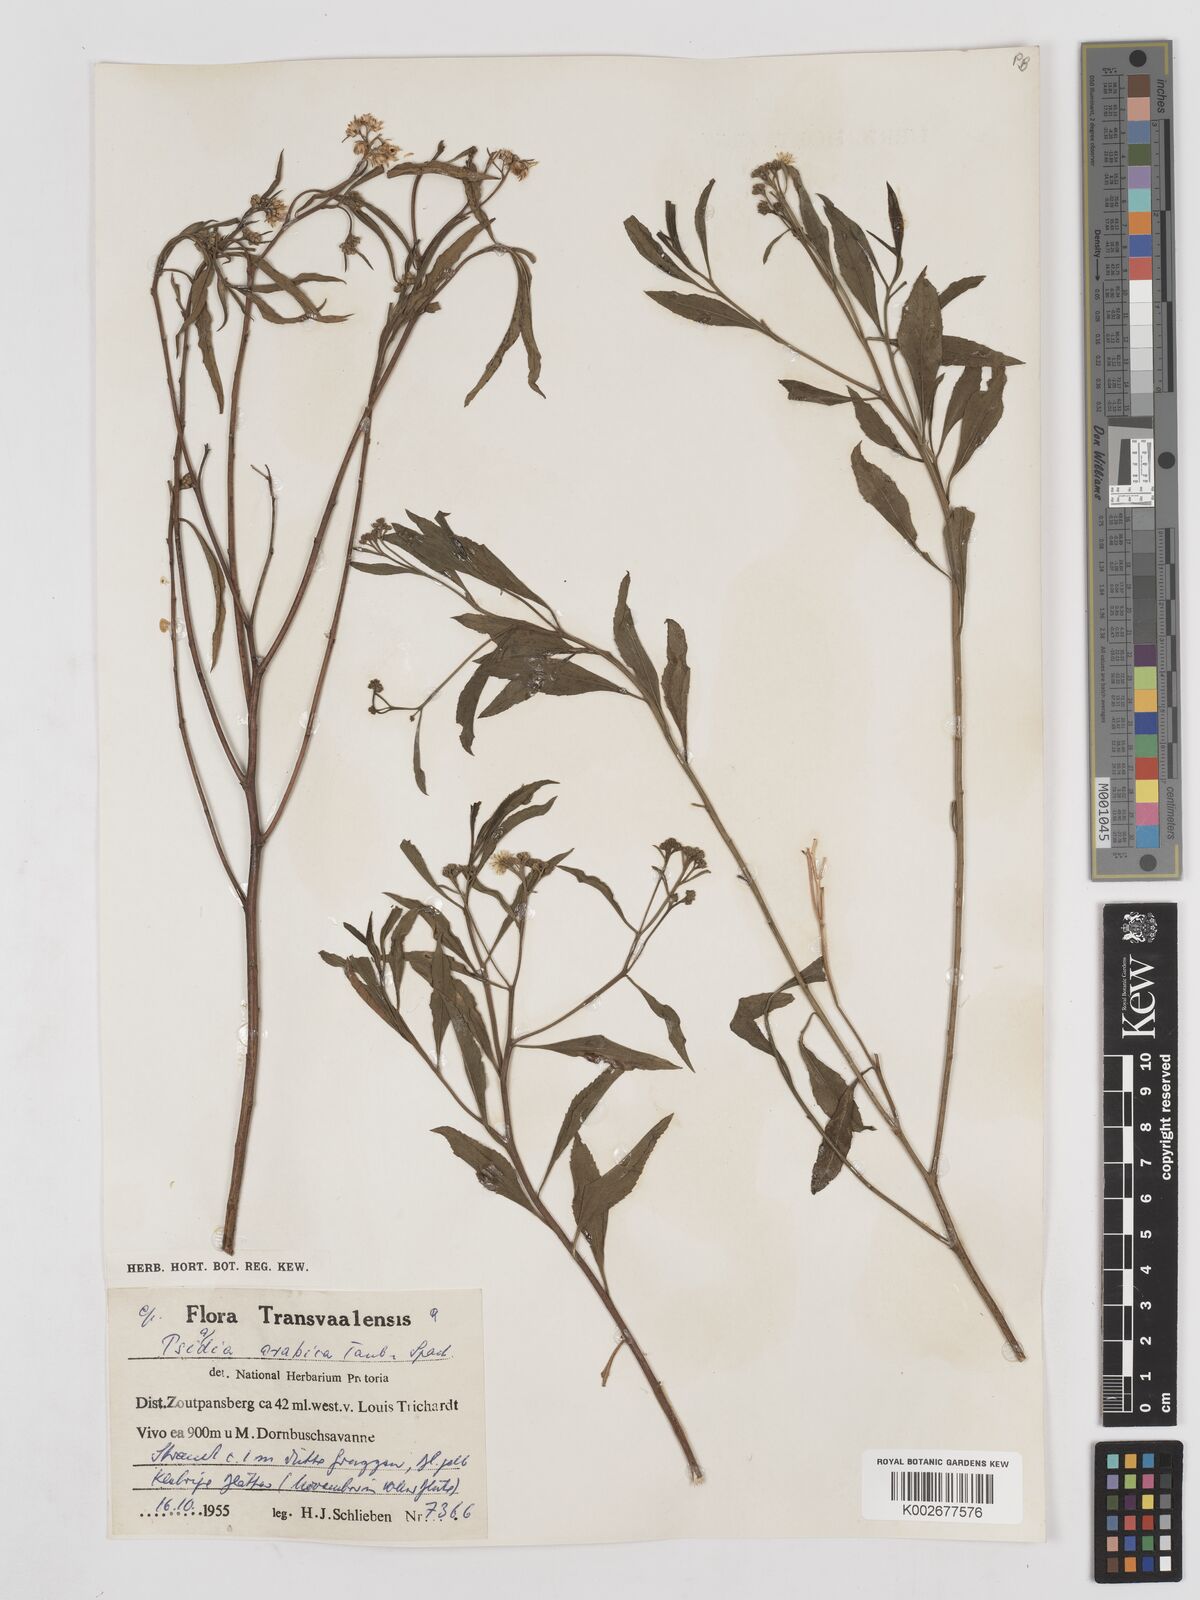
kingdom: Plantae
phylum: Tracheophyta
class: Magnoliopsida
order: Asterales
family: Asteraceae
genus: Psiadia
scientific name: Psiadia punctulata
